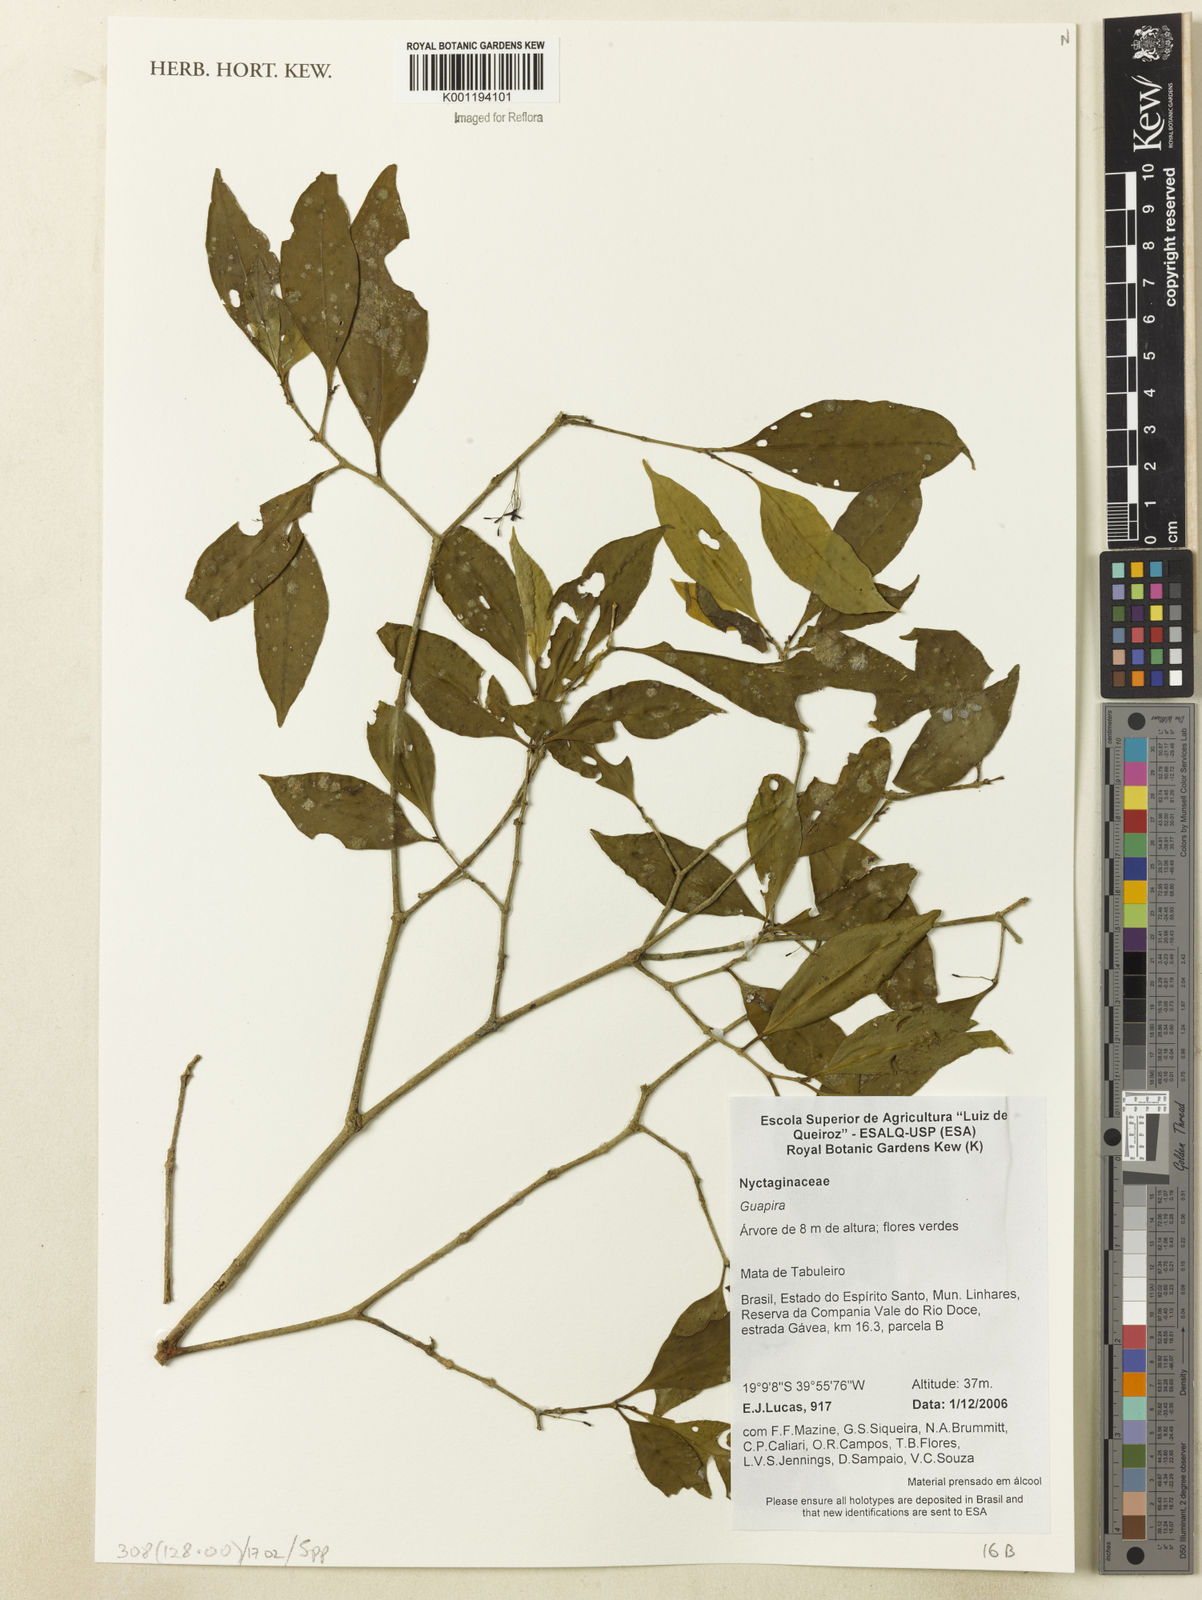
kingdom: Plantae
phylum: Tracheophyta
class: Magnoliopsida
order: Caryophyllales
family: Nyctaginaceae
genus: Guapira
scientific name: Guapira
